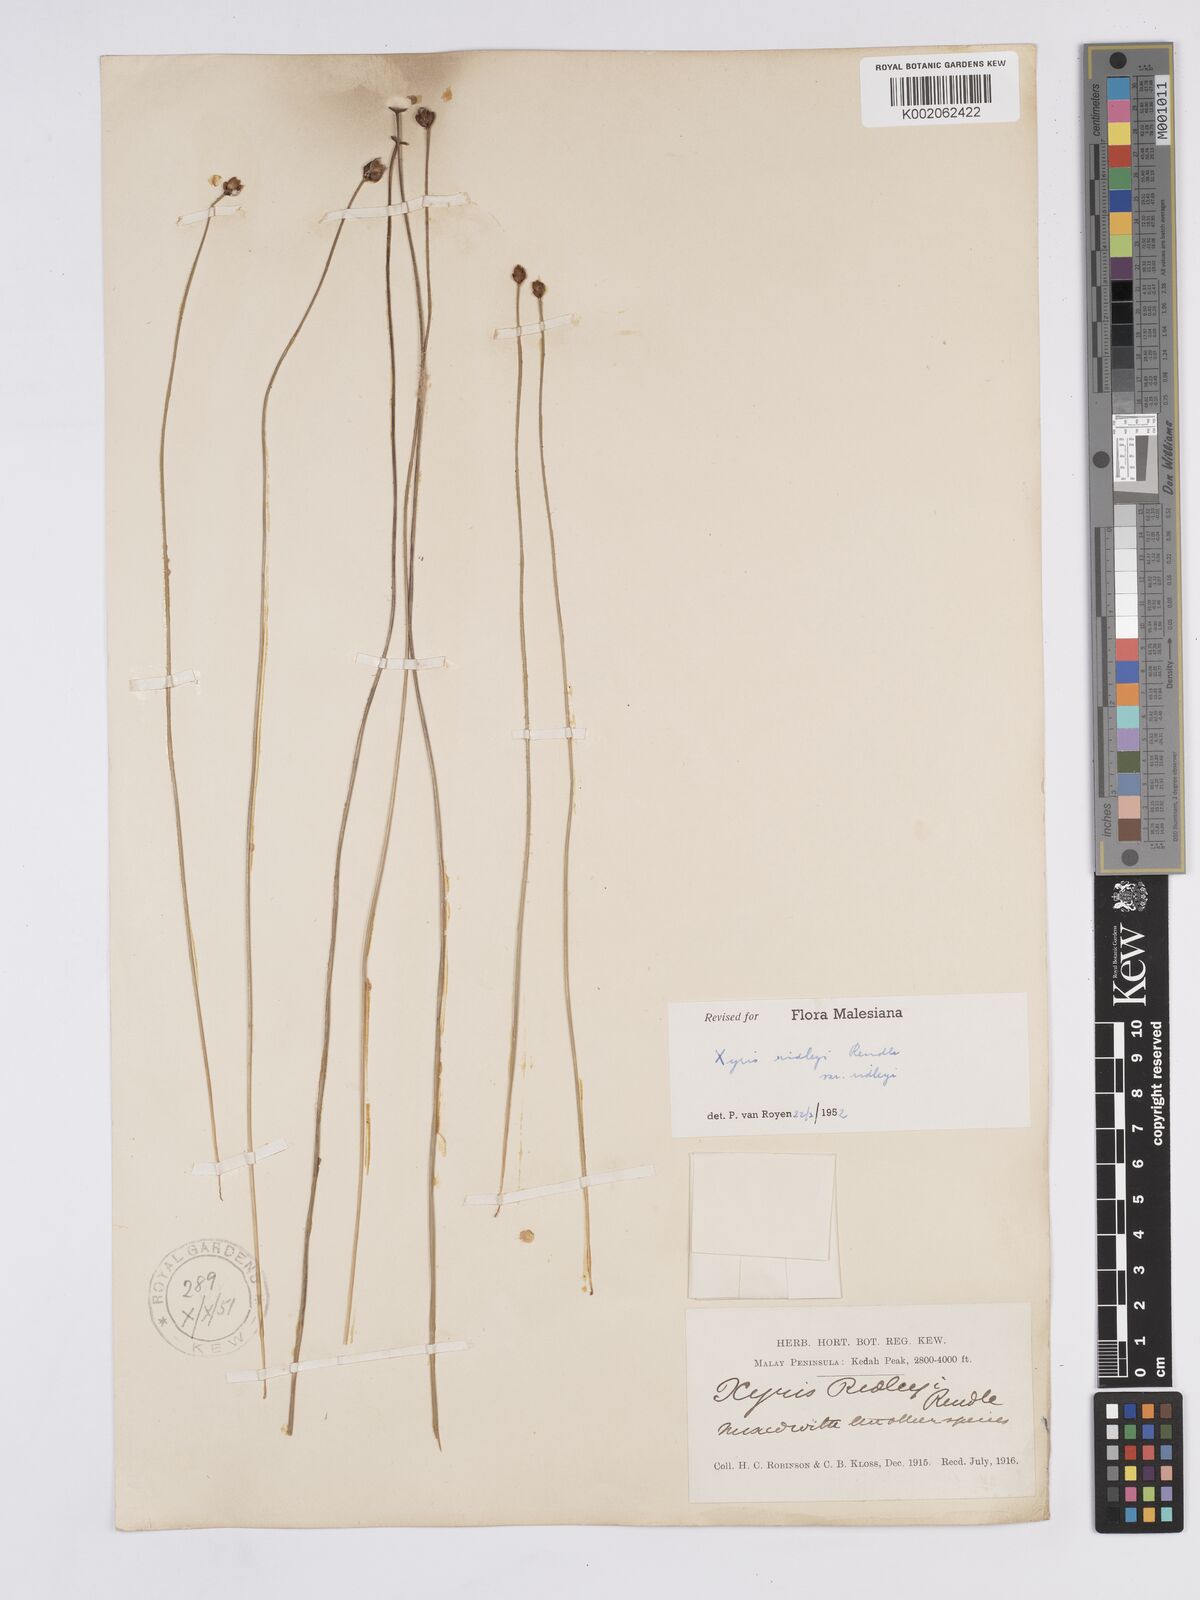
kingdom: Plantae
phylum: Tracheophyta
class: Liliopsida
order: Poales
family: Xyridaceae
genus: Xyris
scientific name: Xyris bancana
